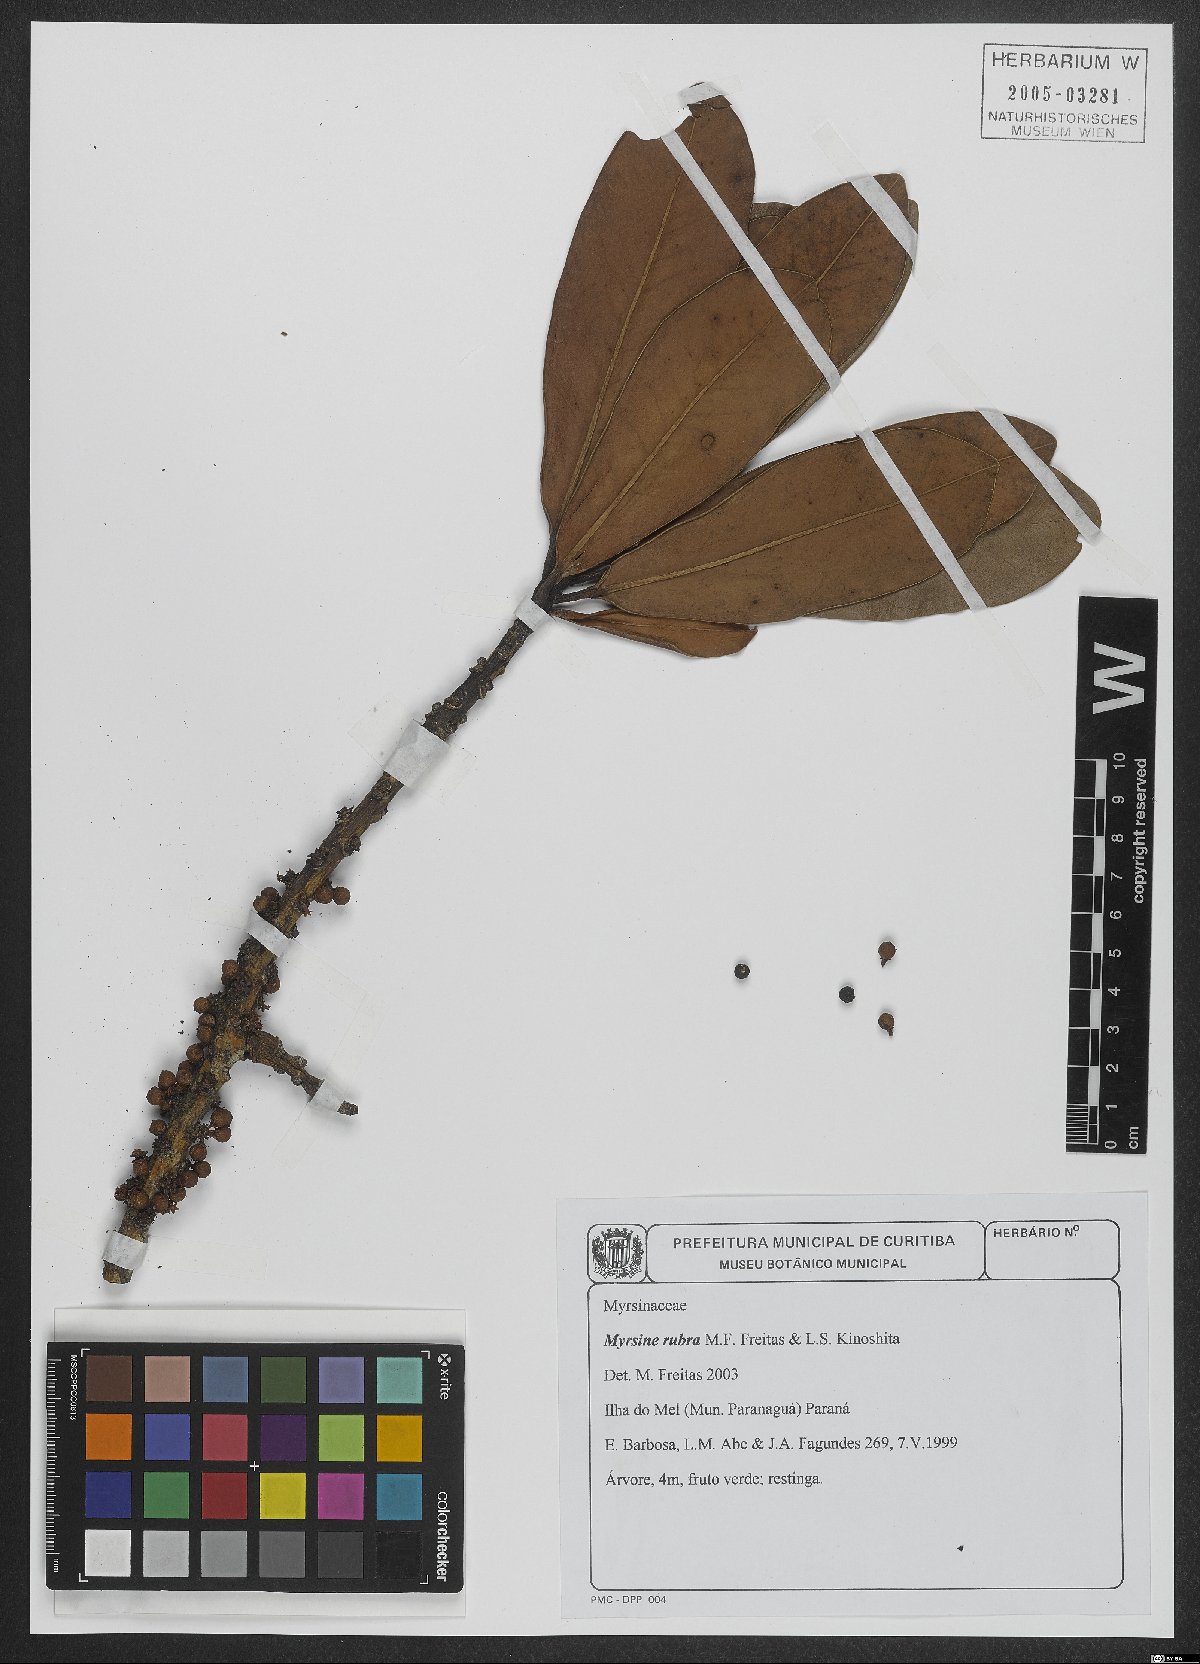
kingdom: Plantae
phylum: Tracheophyta
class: Magnoliopsida
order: Ericales
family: Primulaceae
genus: Myrsine
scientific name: Myrsine rubra
